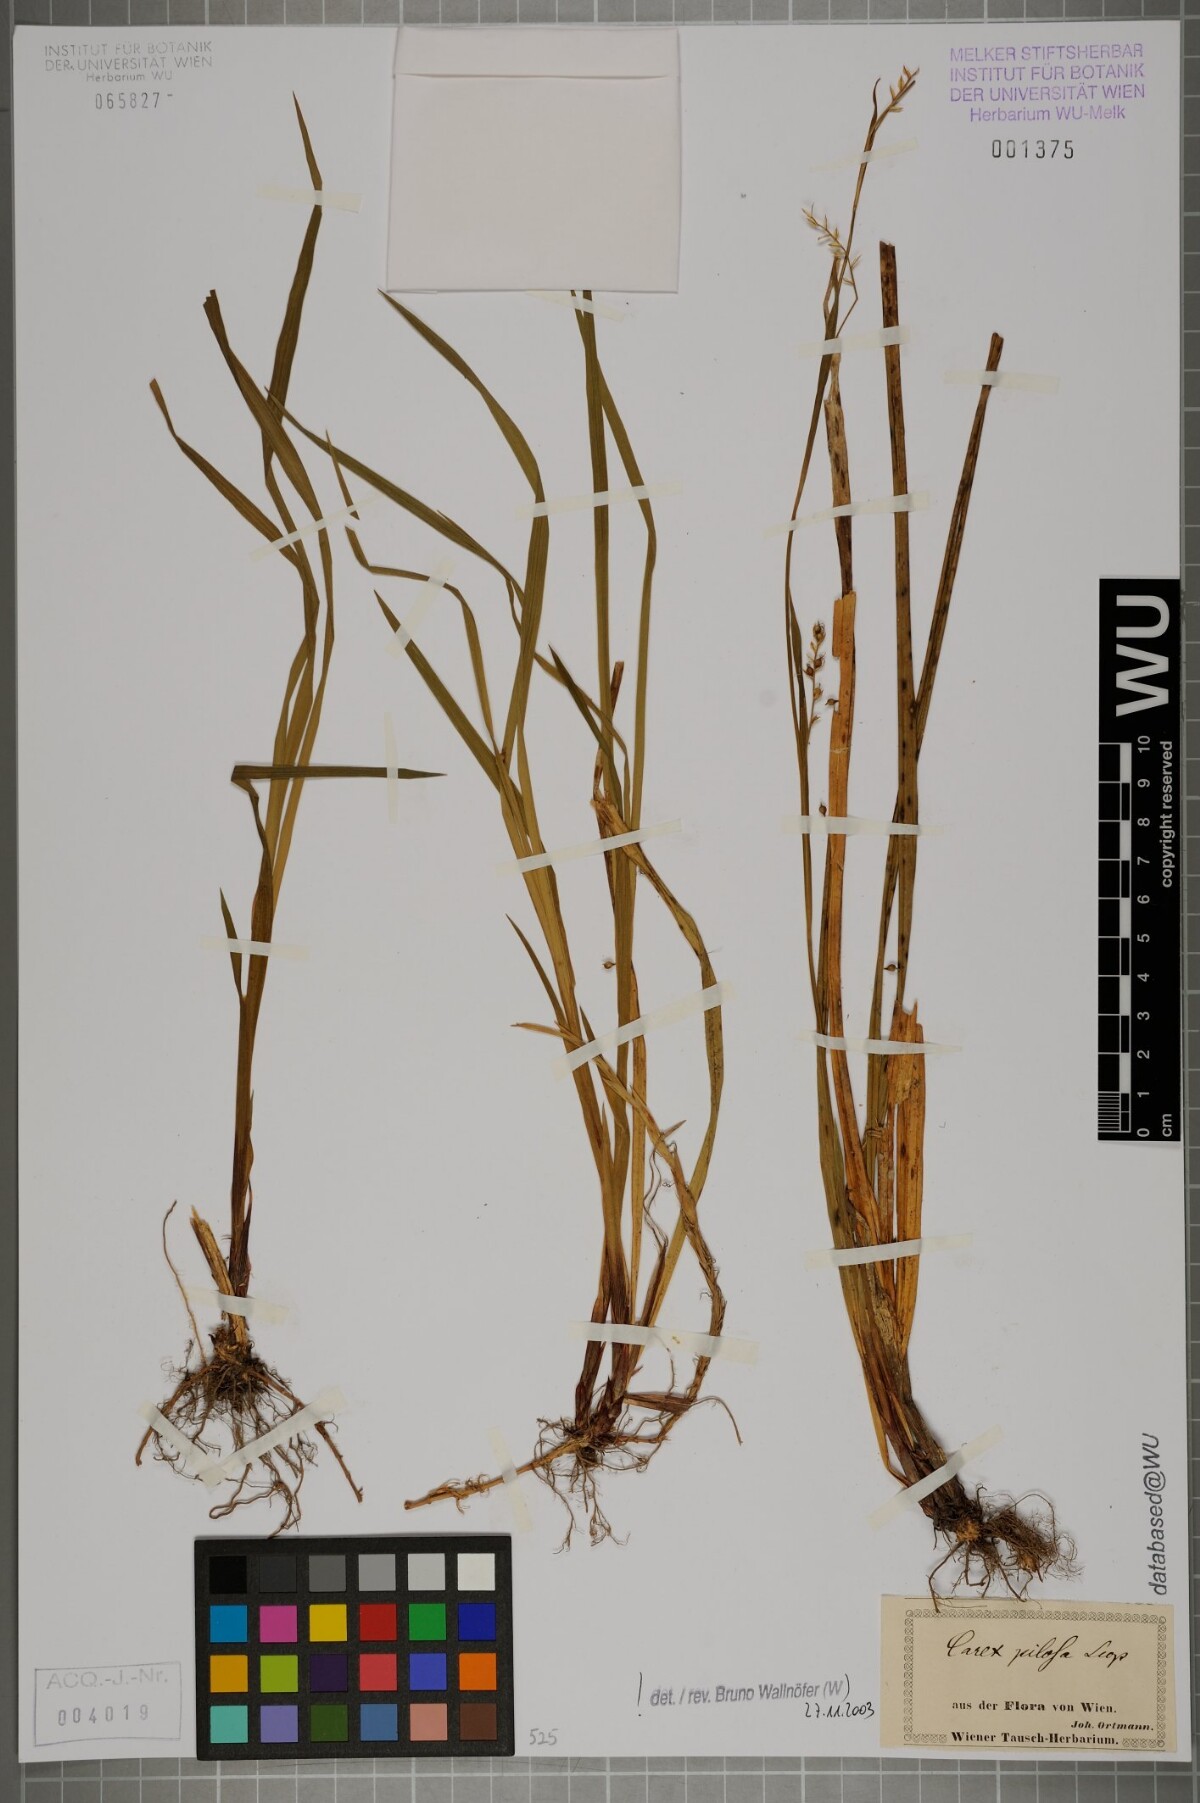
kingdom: Plantae
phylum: Tracheophyta
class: Liliopsida
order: Poales
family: Cyperaceae
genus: Carex
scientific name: Carex pilosa
